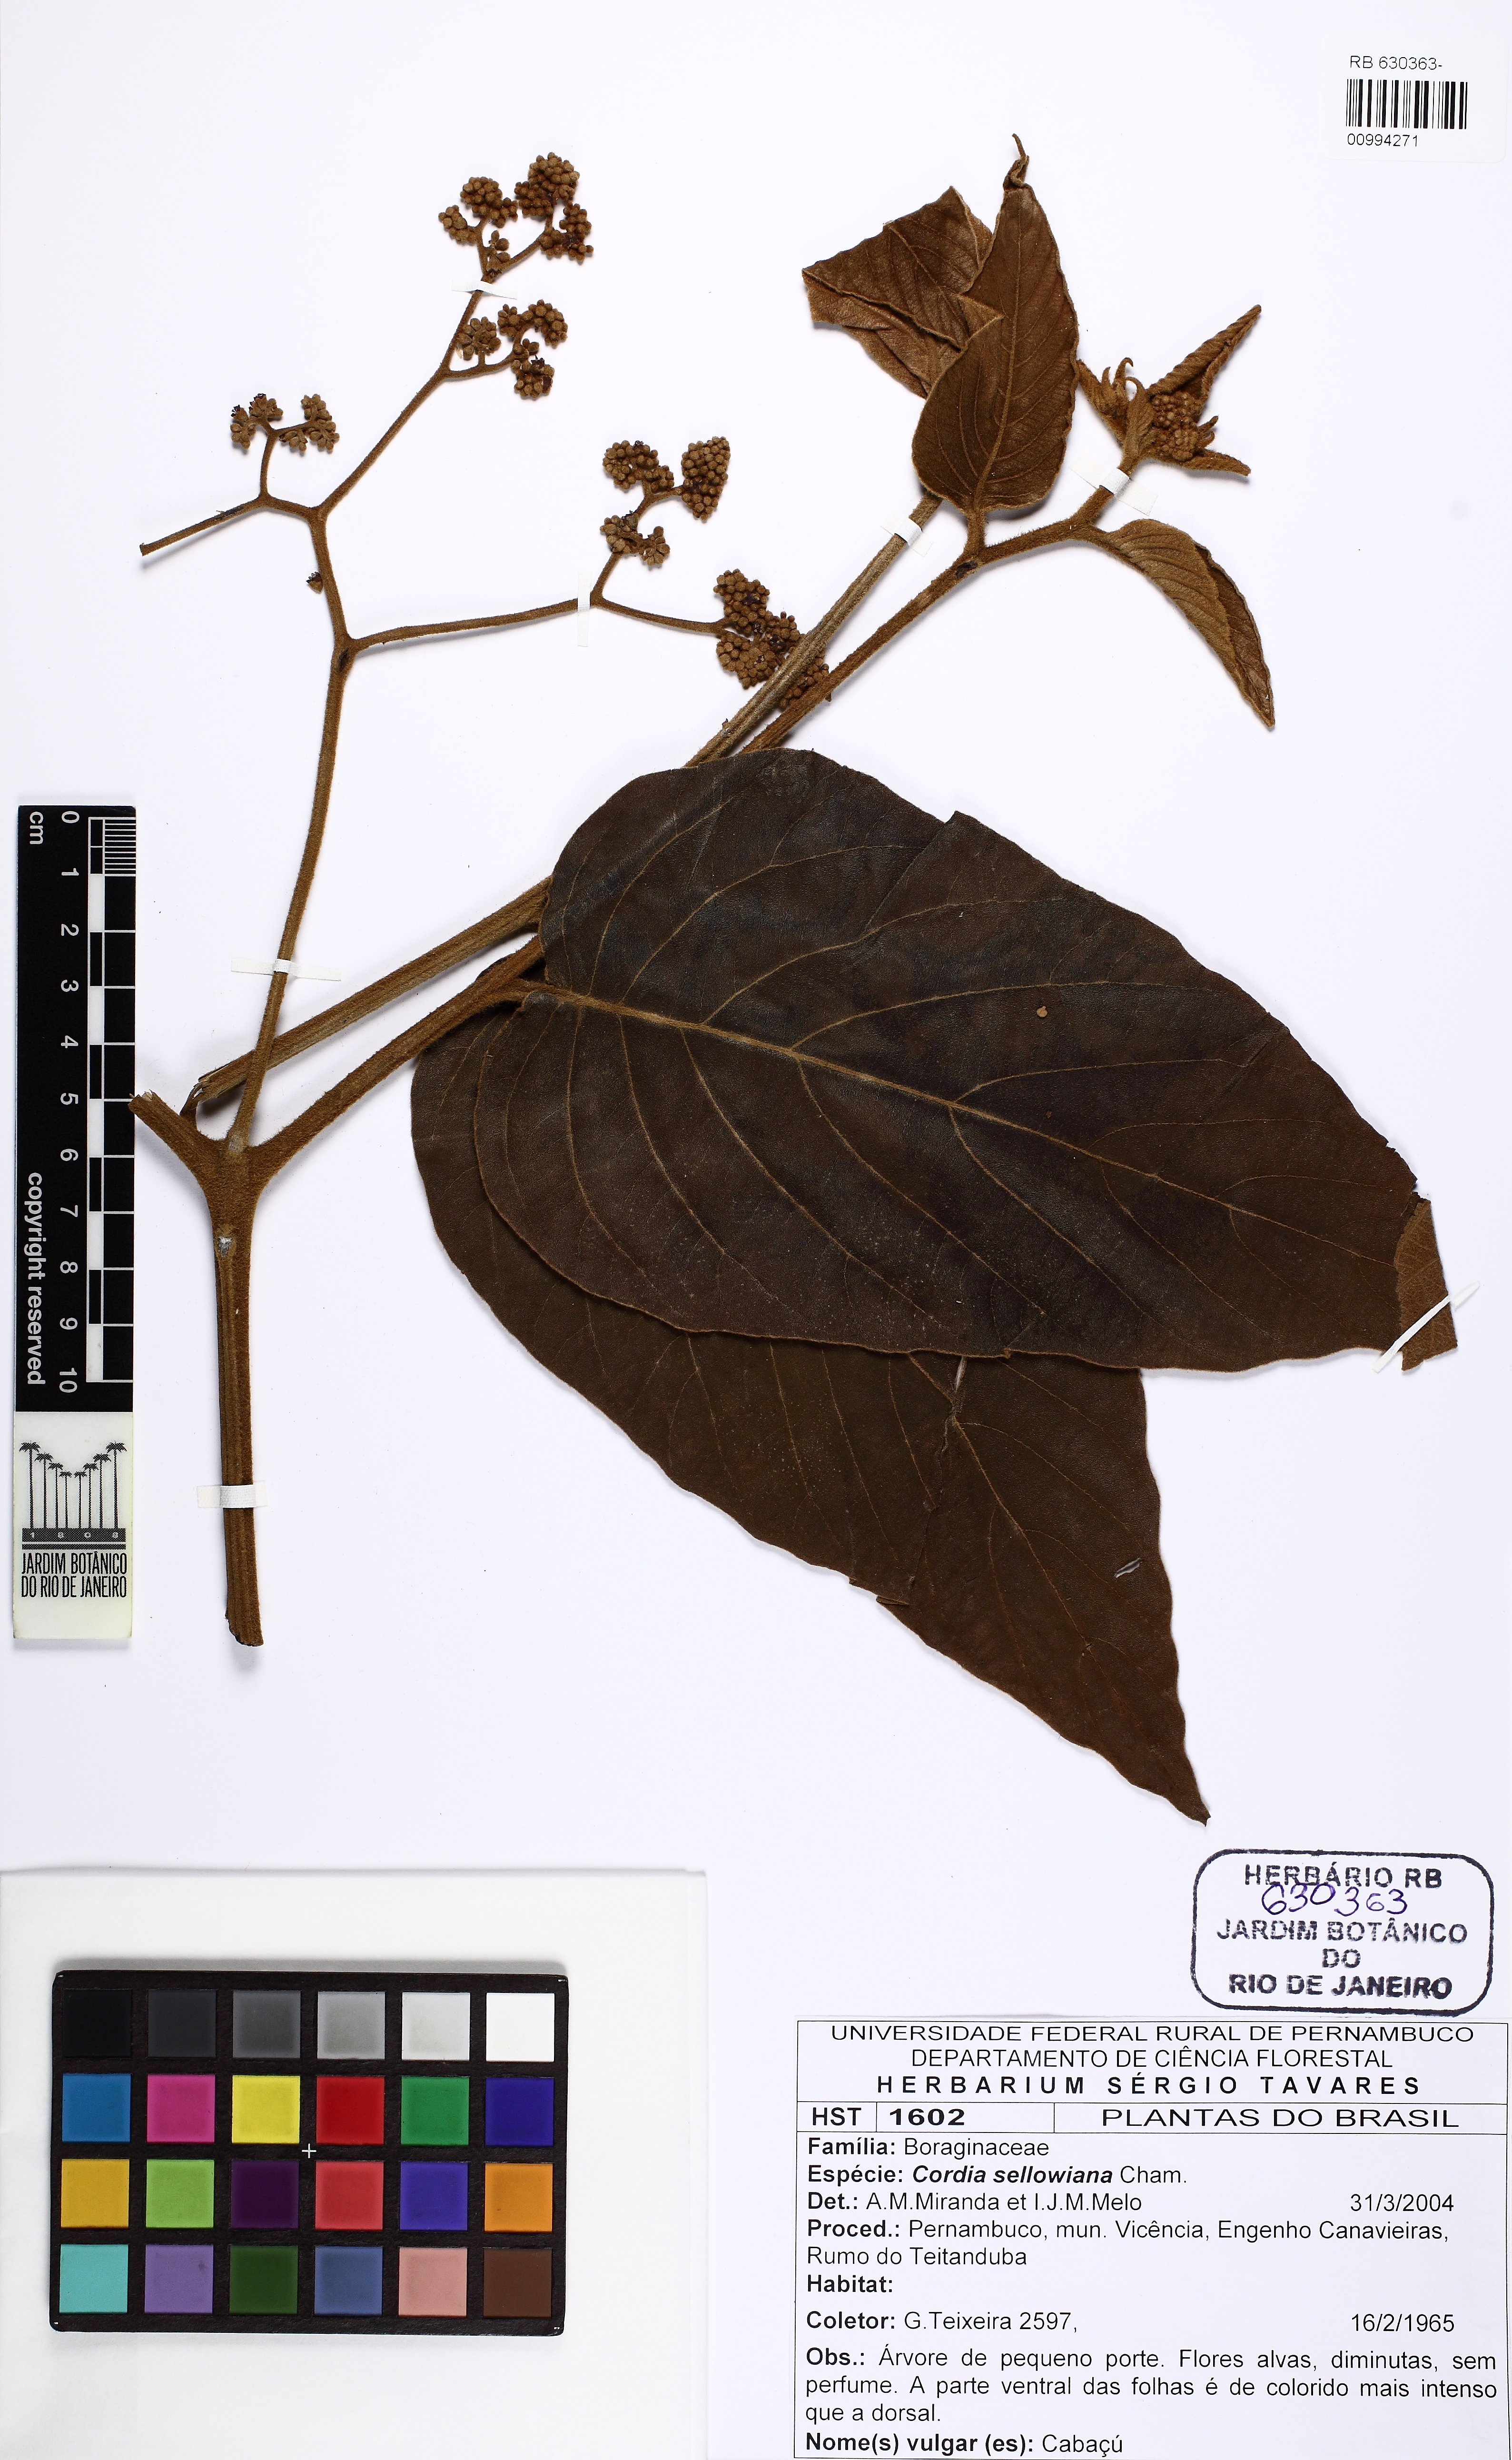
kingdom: Plantae
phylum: Tracheophyta
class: Magnoliopsida
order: Boraginales
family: Cordiaceae
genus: Cordia
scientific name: Cordia sellowiana
